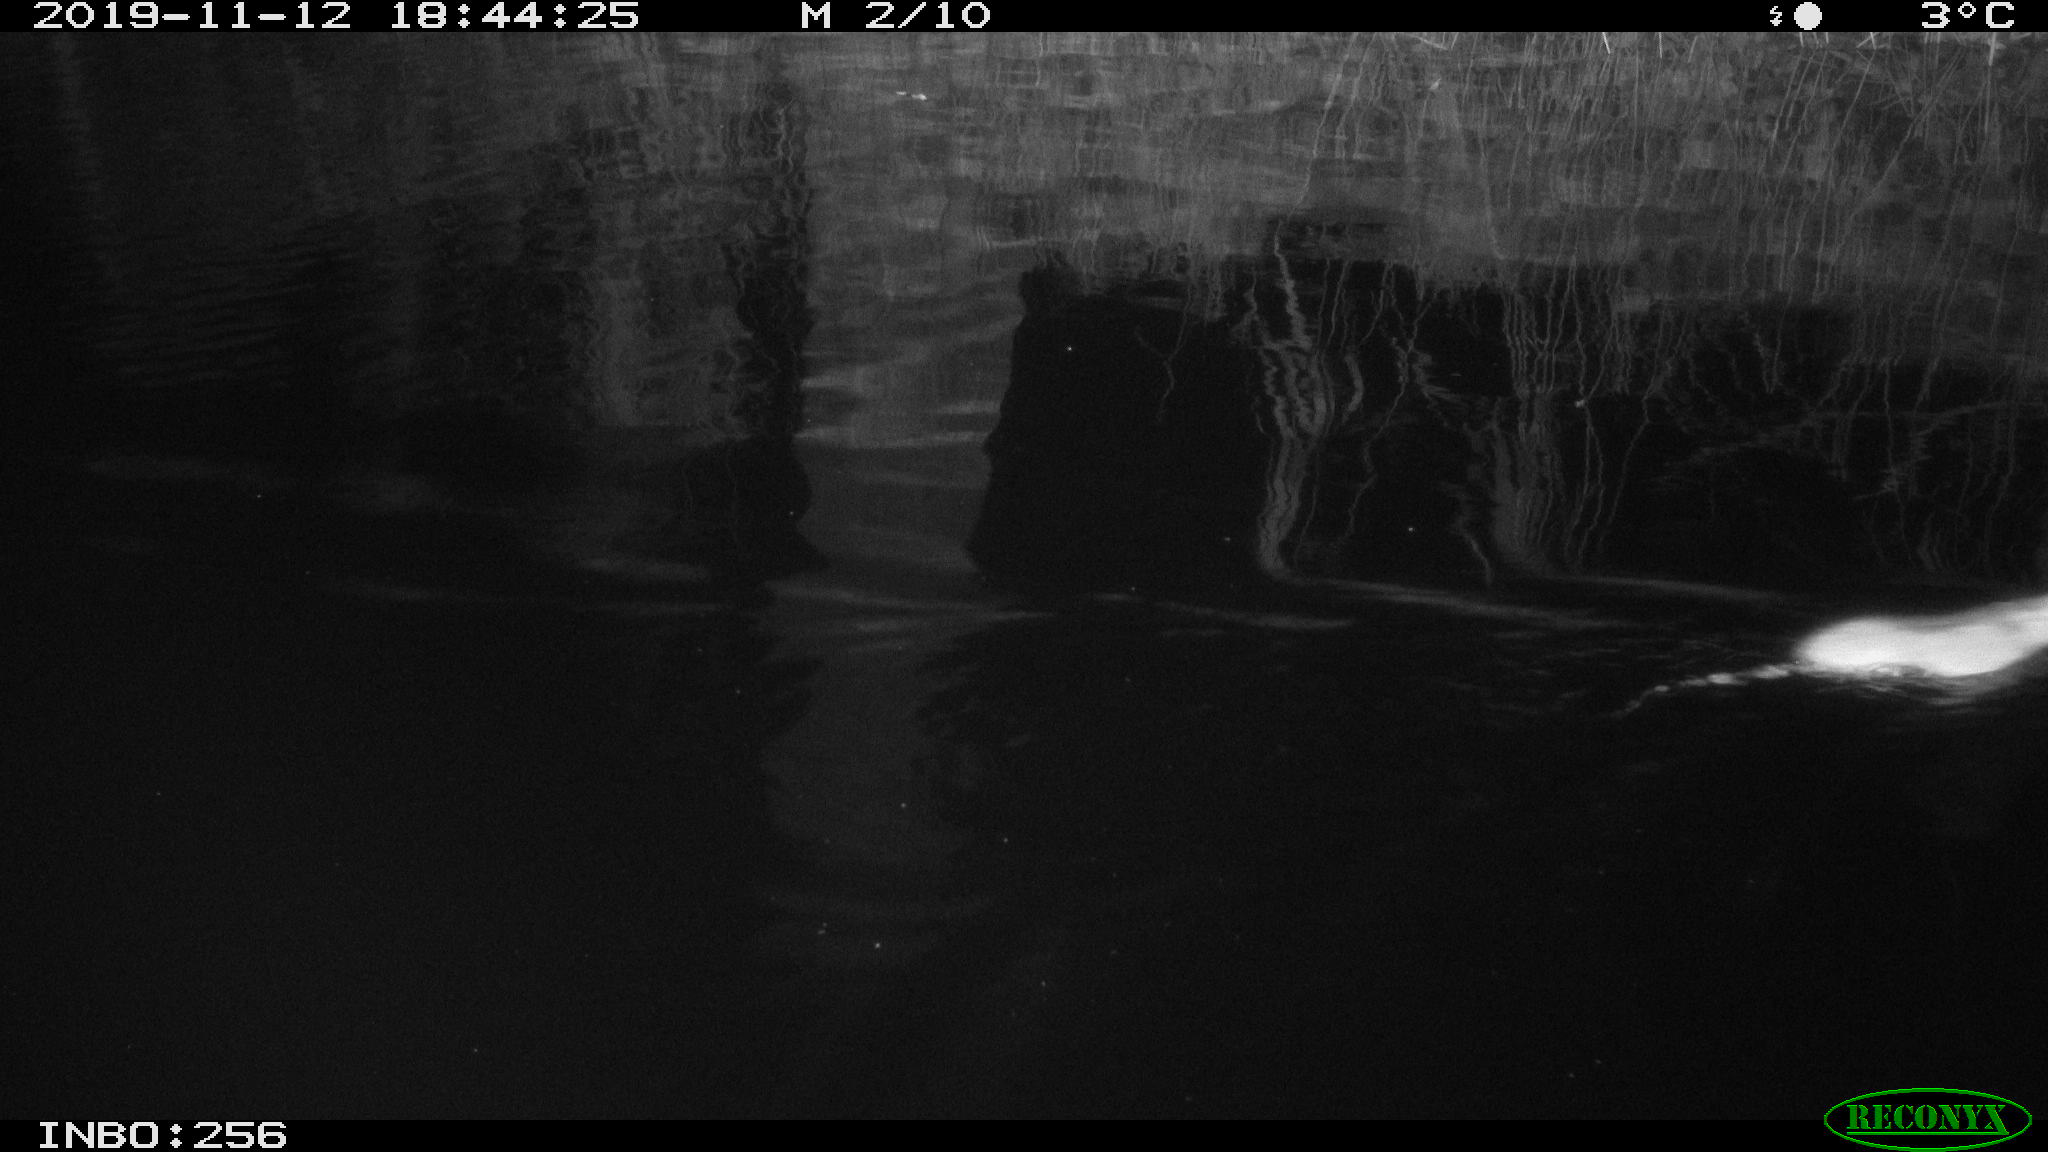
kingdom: Animalia
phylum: Chordata
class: Mammalia
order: Rodentia
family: Muridae
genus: Rattus
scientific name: Rattus norvegicus
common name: Brown rat
